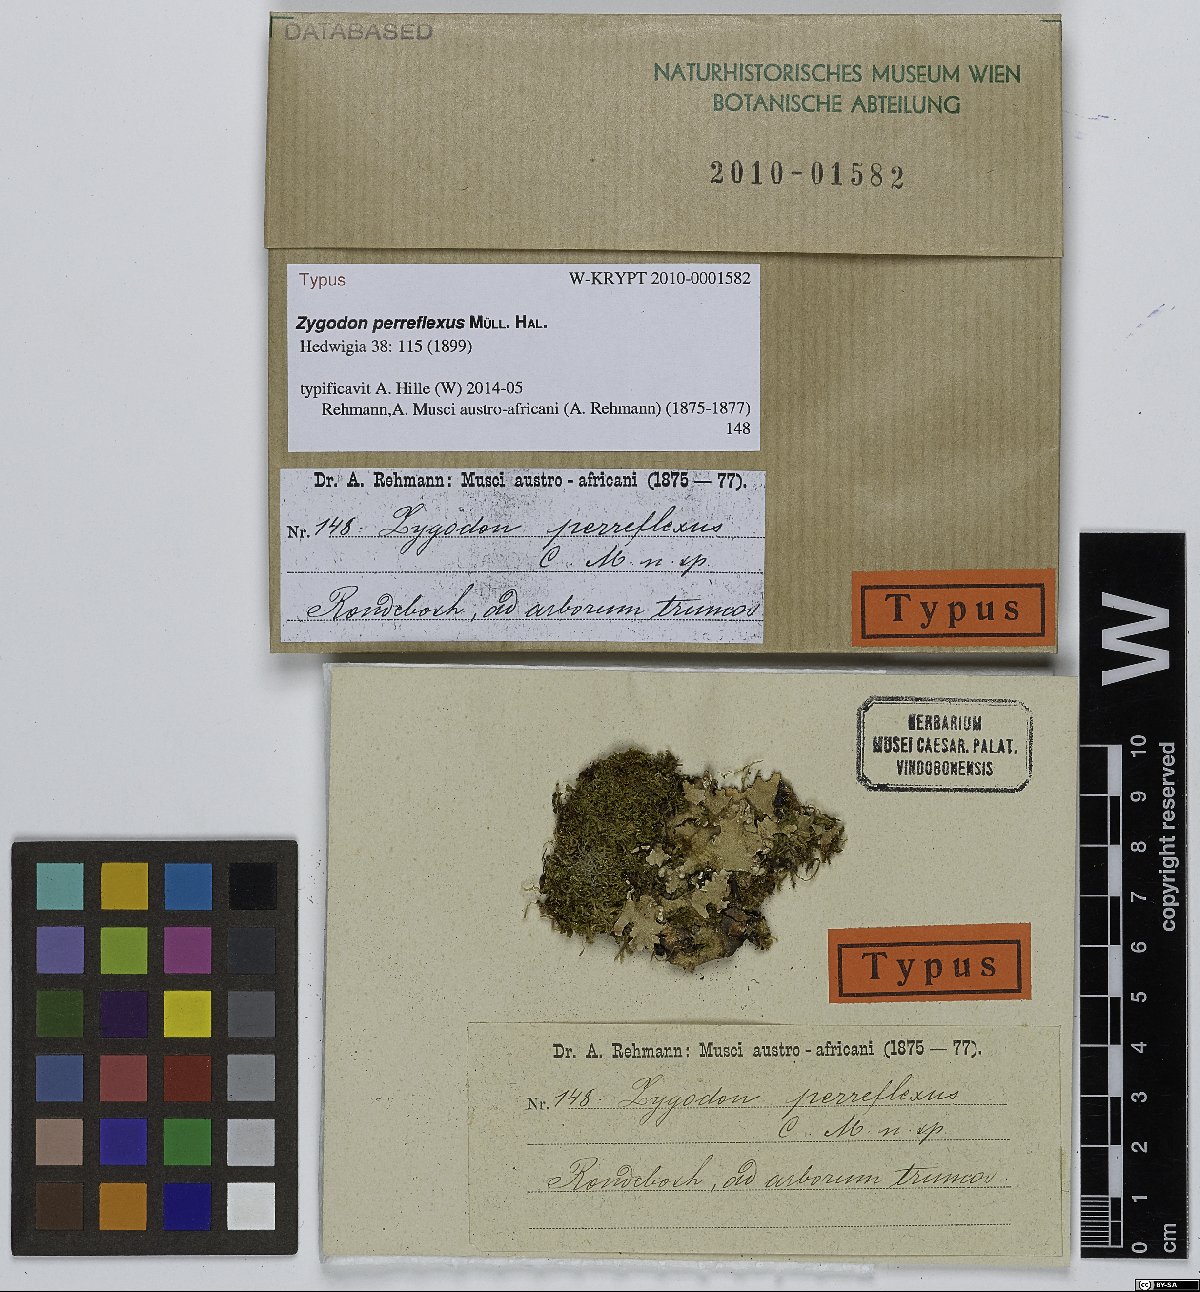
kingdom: Plantae
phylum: Bryophyta
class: Bryopsida
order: Orthotrichales
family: Orthotrichaceae
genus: Zygodon
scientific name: Zygodon perreflexus
